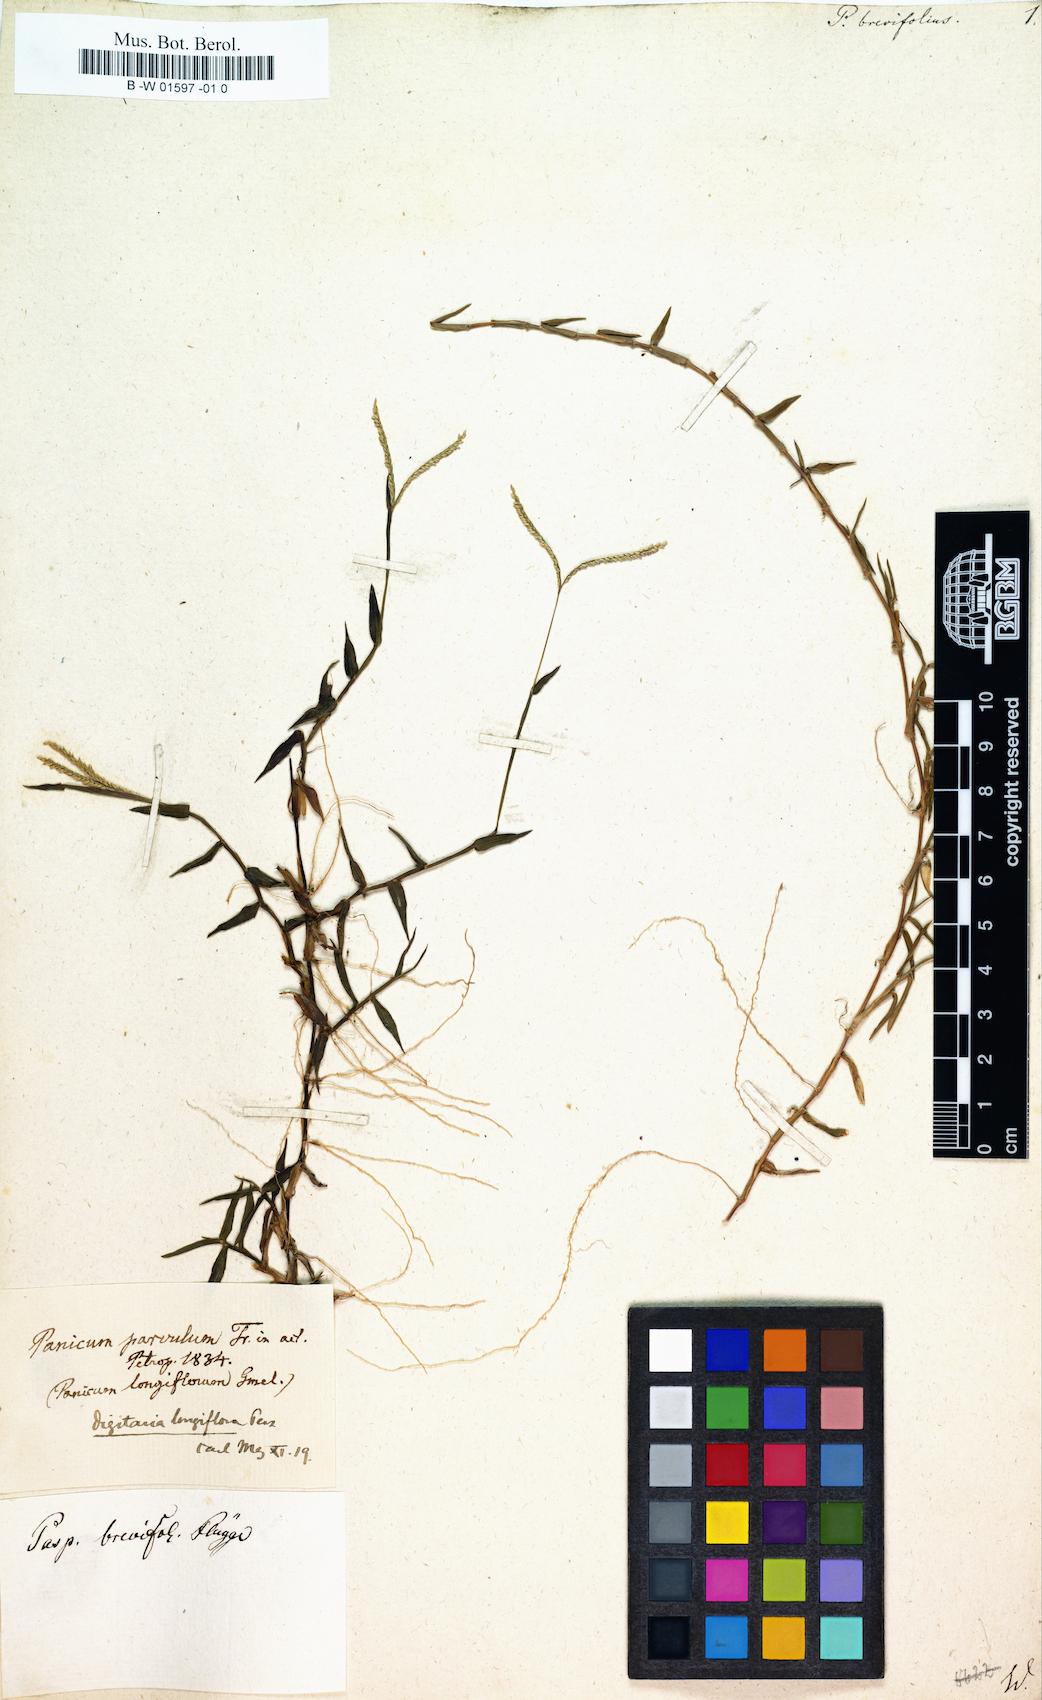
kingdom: Plantae
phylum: Tracheophyta
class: Liliopsida
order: Poales
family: Poaceae
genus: Paspalus
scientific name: Paspalus
